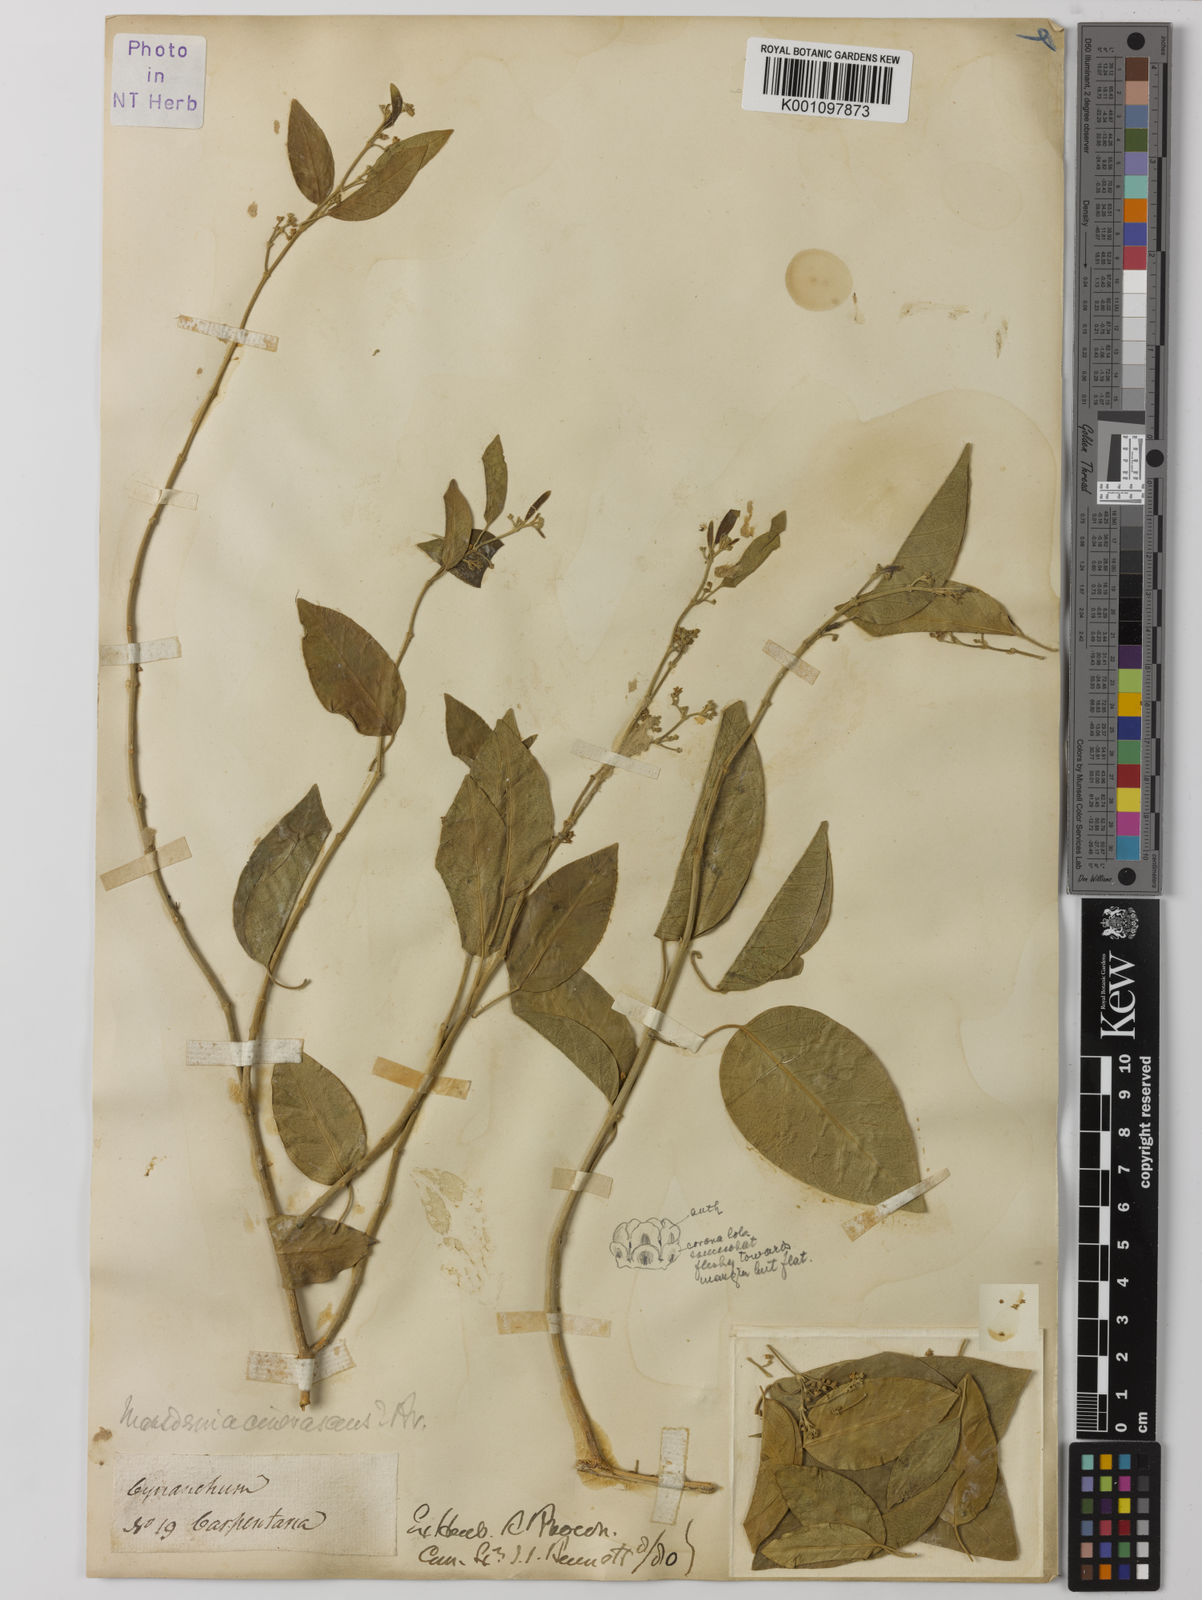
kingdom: Plantae
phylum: Tracheophyta
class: Magnoliopsida
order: Gentianales
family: Apocynaceae
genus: Vincetoxicum
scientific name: Vincetoxicum cinerascens
